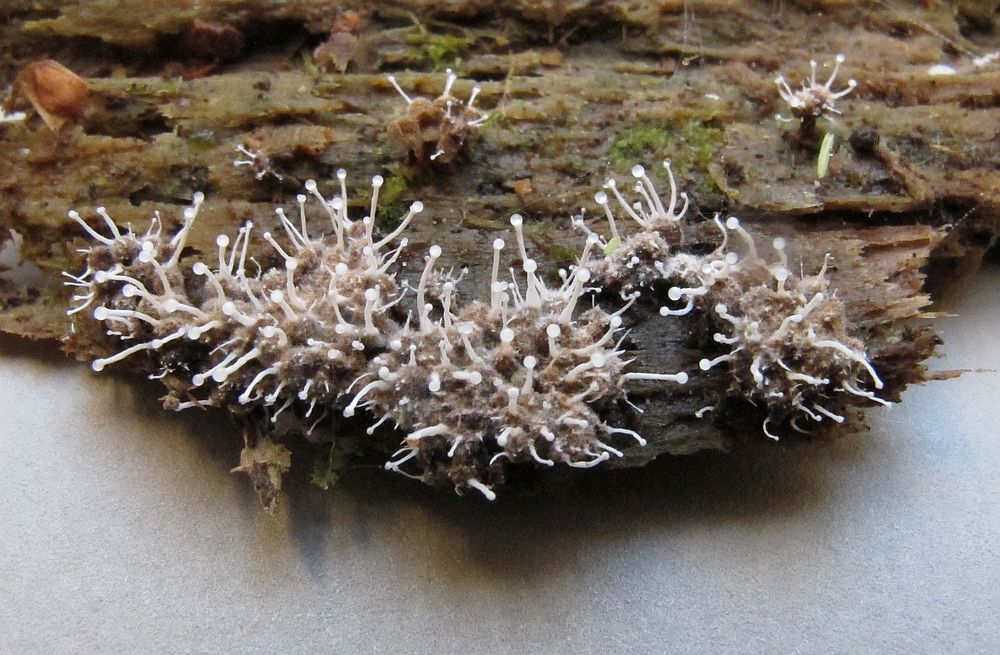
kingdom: Fungi
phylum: Ascomycota
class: Sordariomycetes
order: Hypocreales
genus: Stilbella
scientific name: Stilbella byssiseda
